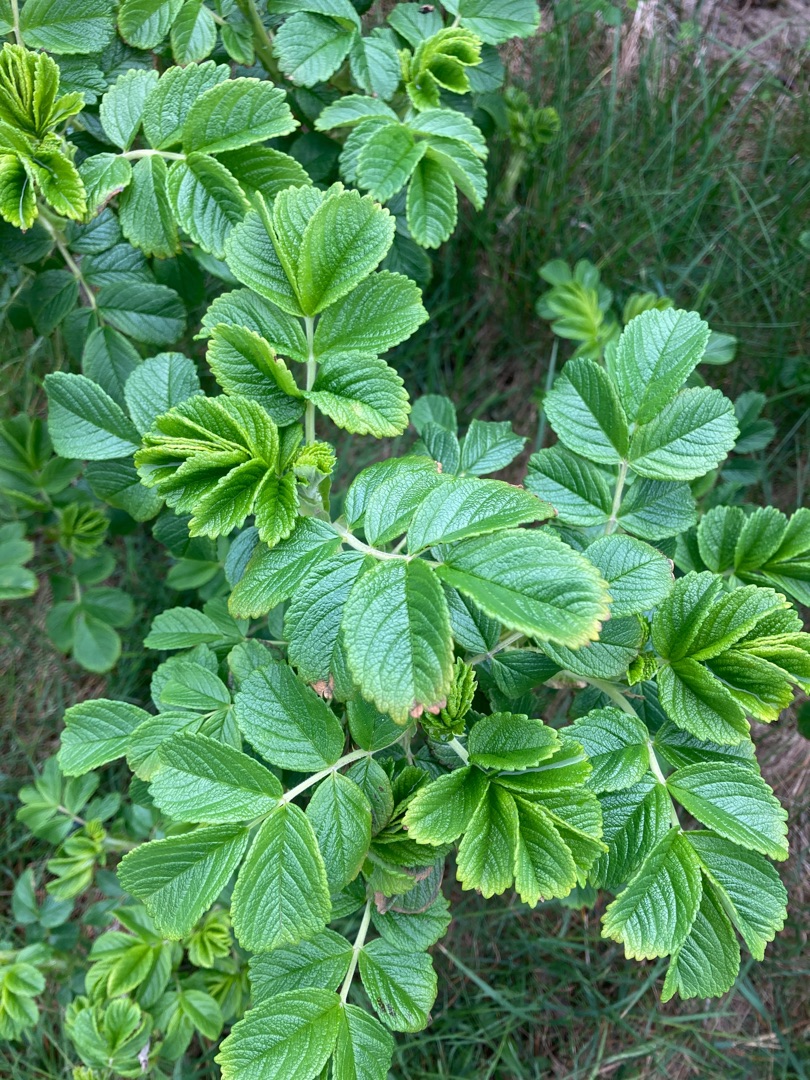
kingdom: Plantae
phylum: Tracheophyta
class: Magnoliopsida
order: Rosales
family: Rosaceae
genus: Rosa
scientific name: Rosa rugosa
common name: Rynket rose
